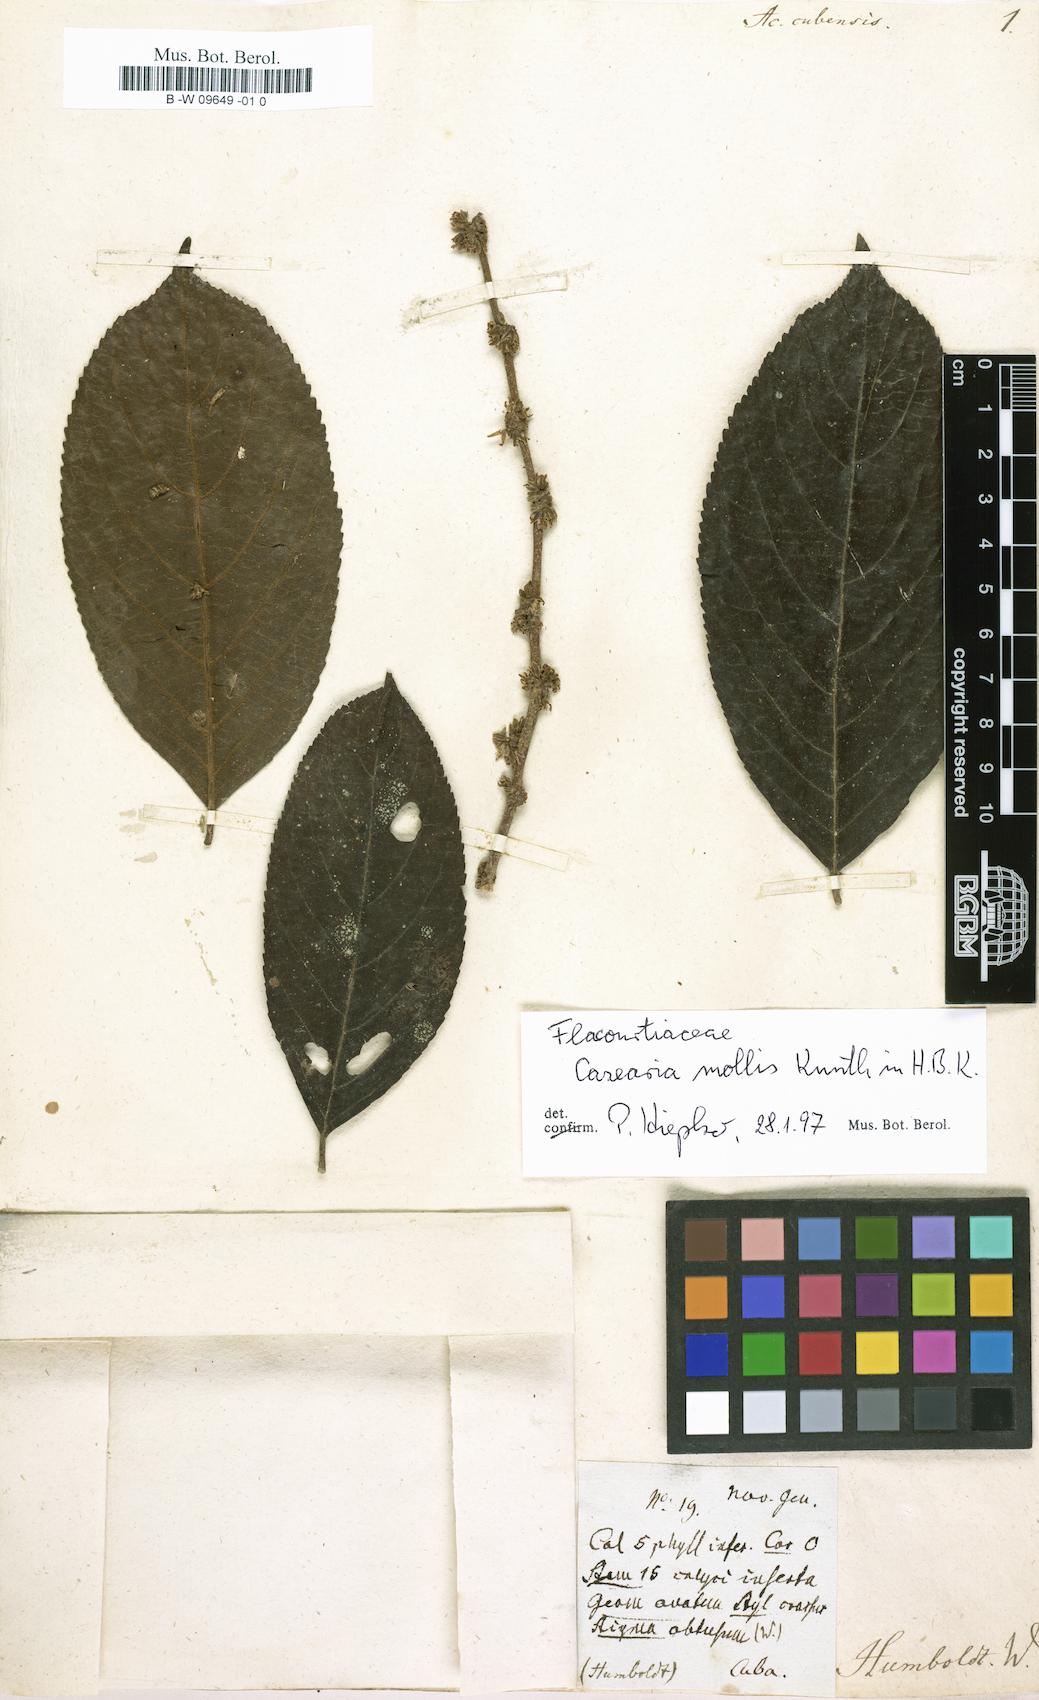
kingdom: Plantae
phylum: Tracheophyta
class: Magnoliopsida
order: Malpighiales
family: Flacourtiaceae
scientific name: Flacourtiaceae
